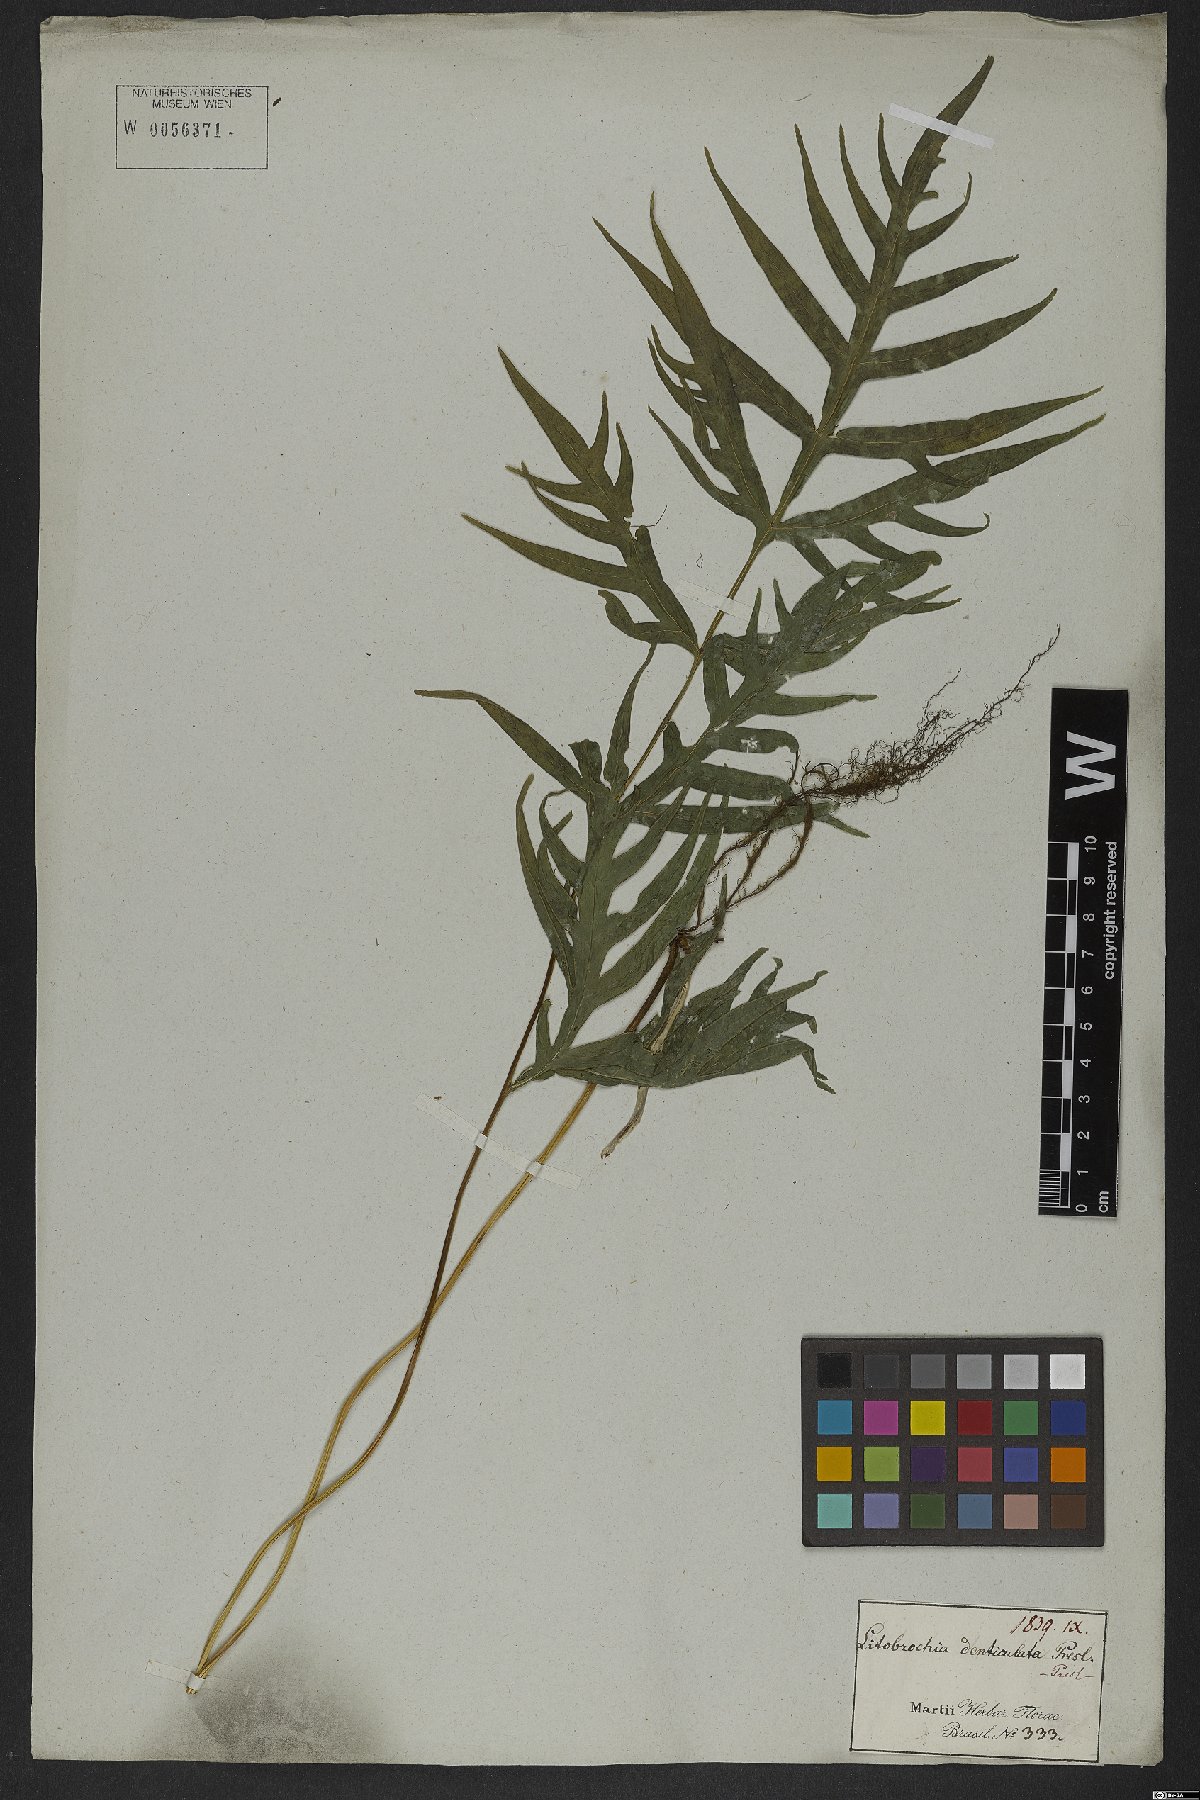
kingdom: Plantae
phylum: Tracheophyta
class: Polypodiopsida
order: Polypodiales
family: Pteridaceae
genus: Pteris
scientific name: Pteris denticulata
